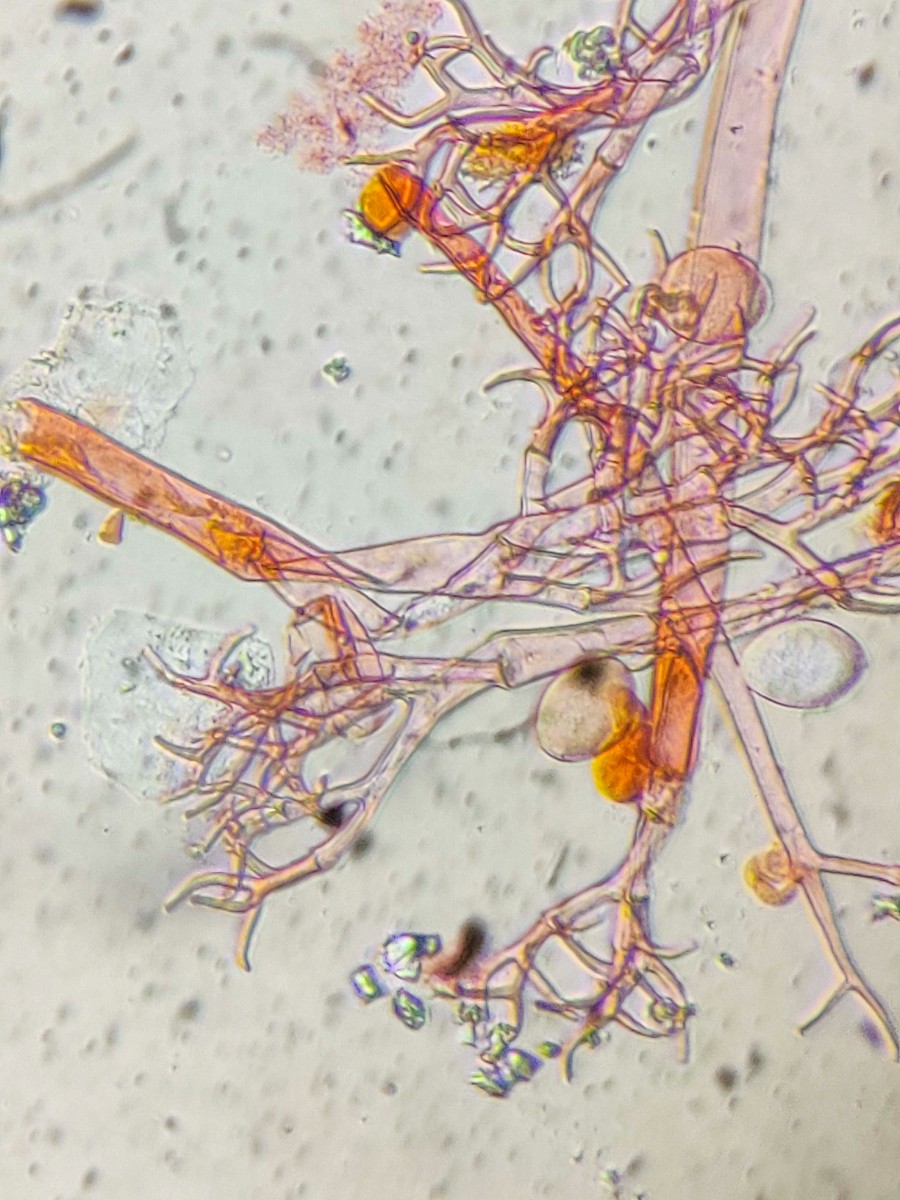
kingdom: Chromista
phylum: Oomycota
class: Peronosporea
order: Peronosporales
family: Peronosporaceae
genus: Hyaloperonospora
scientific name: Hyaloperonospora niessliana
